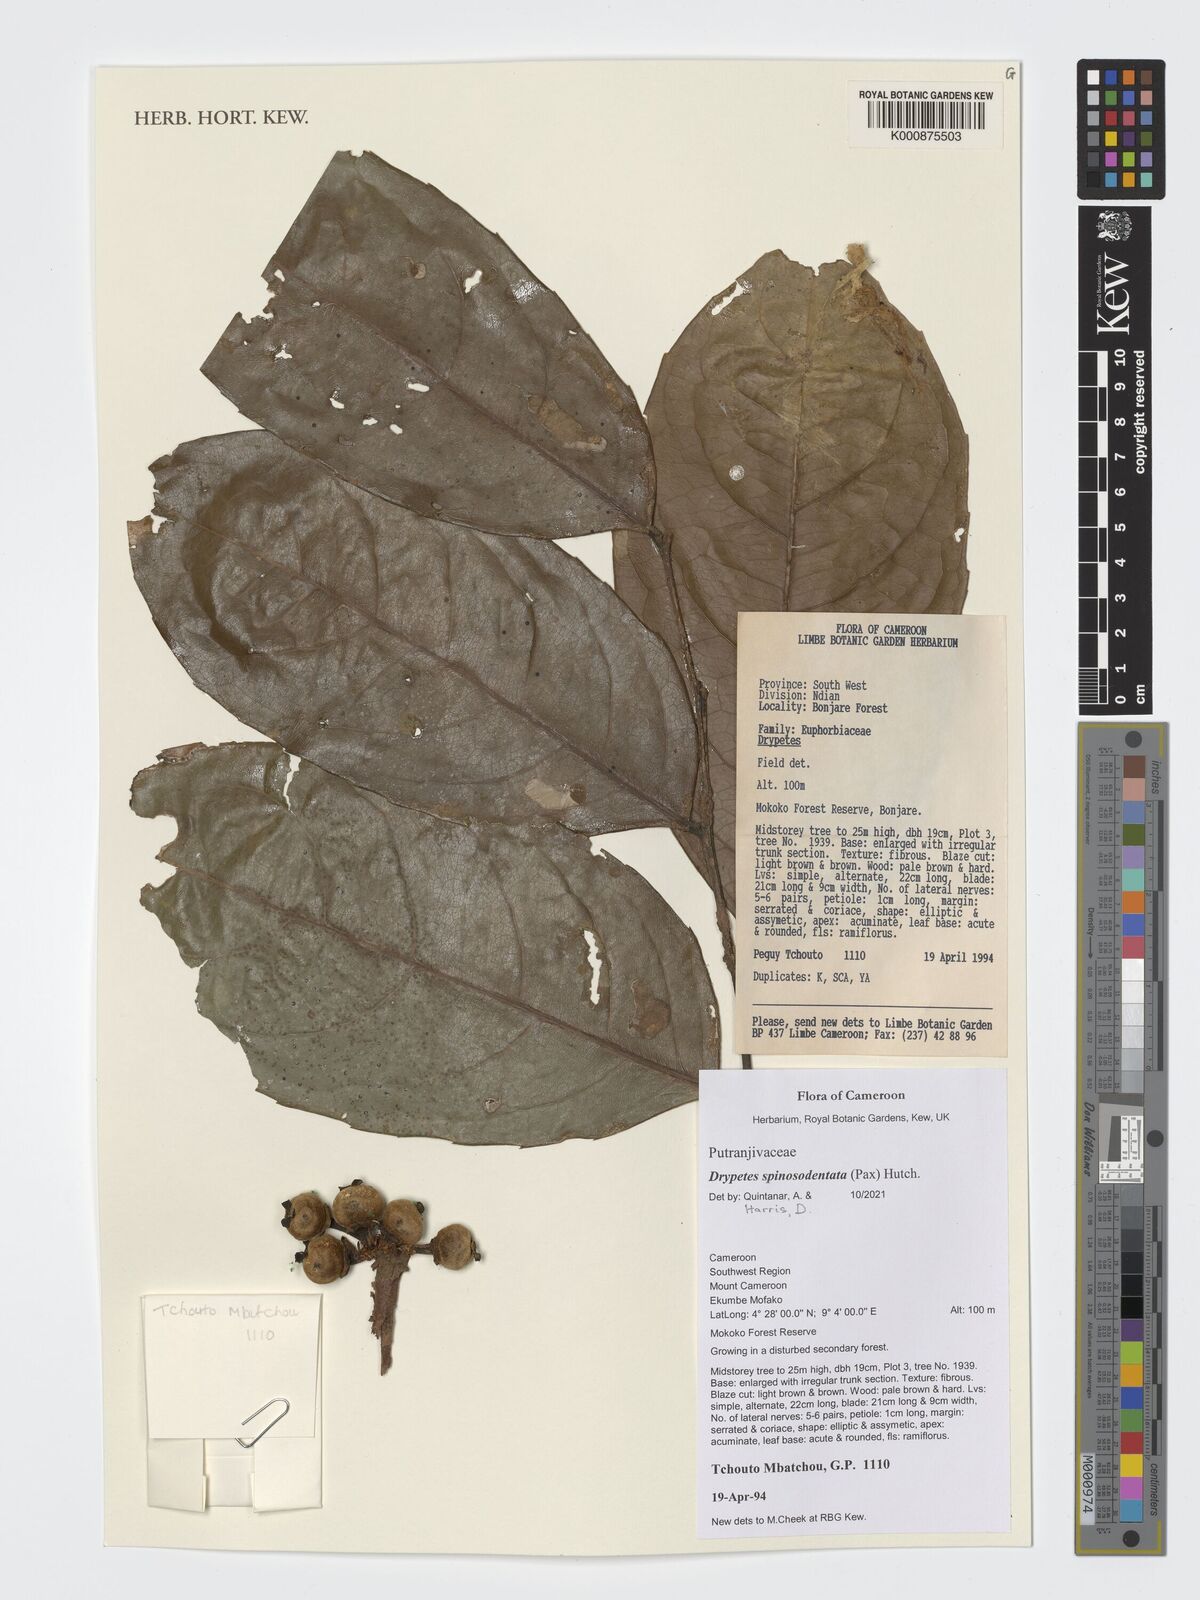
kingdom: Plantae
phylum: Tracheophyta
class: Magnoliopsida
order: Malpighiales
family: Putranjivaceae
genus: Drypetes
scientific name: Drypetes spinosodentata
